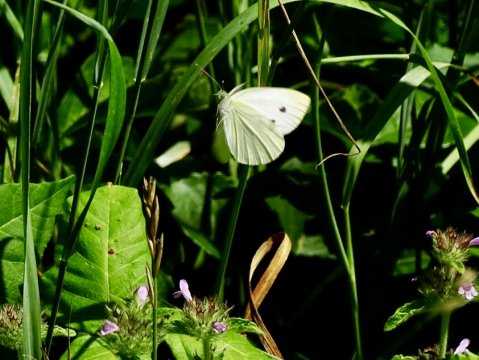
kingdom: Animalia
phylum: Arthropoda
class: Insecta
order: Lepidoptera
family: Pieridae
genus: Pieris
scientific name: Pieris rapae
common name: Cabbage White
